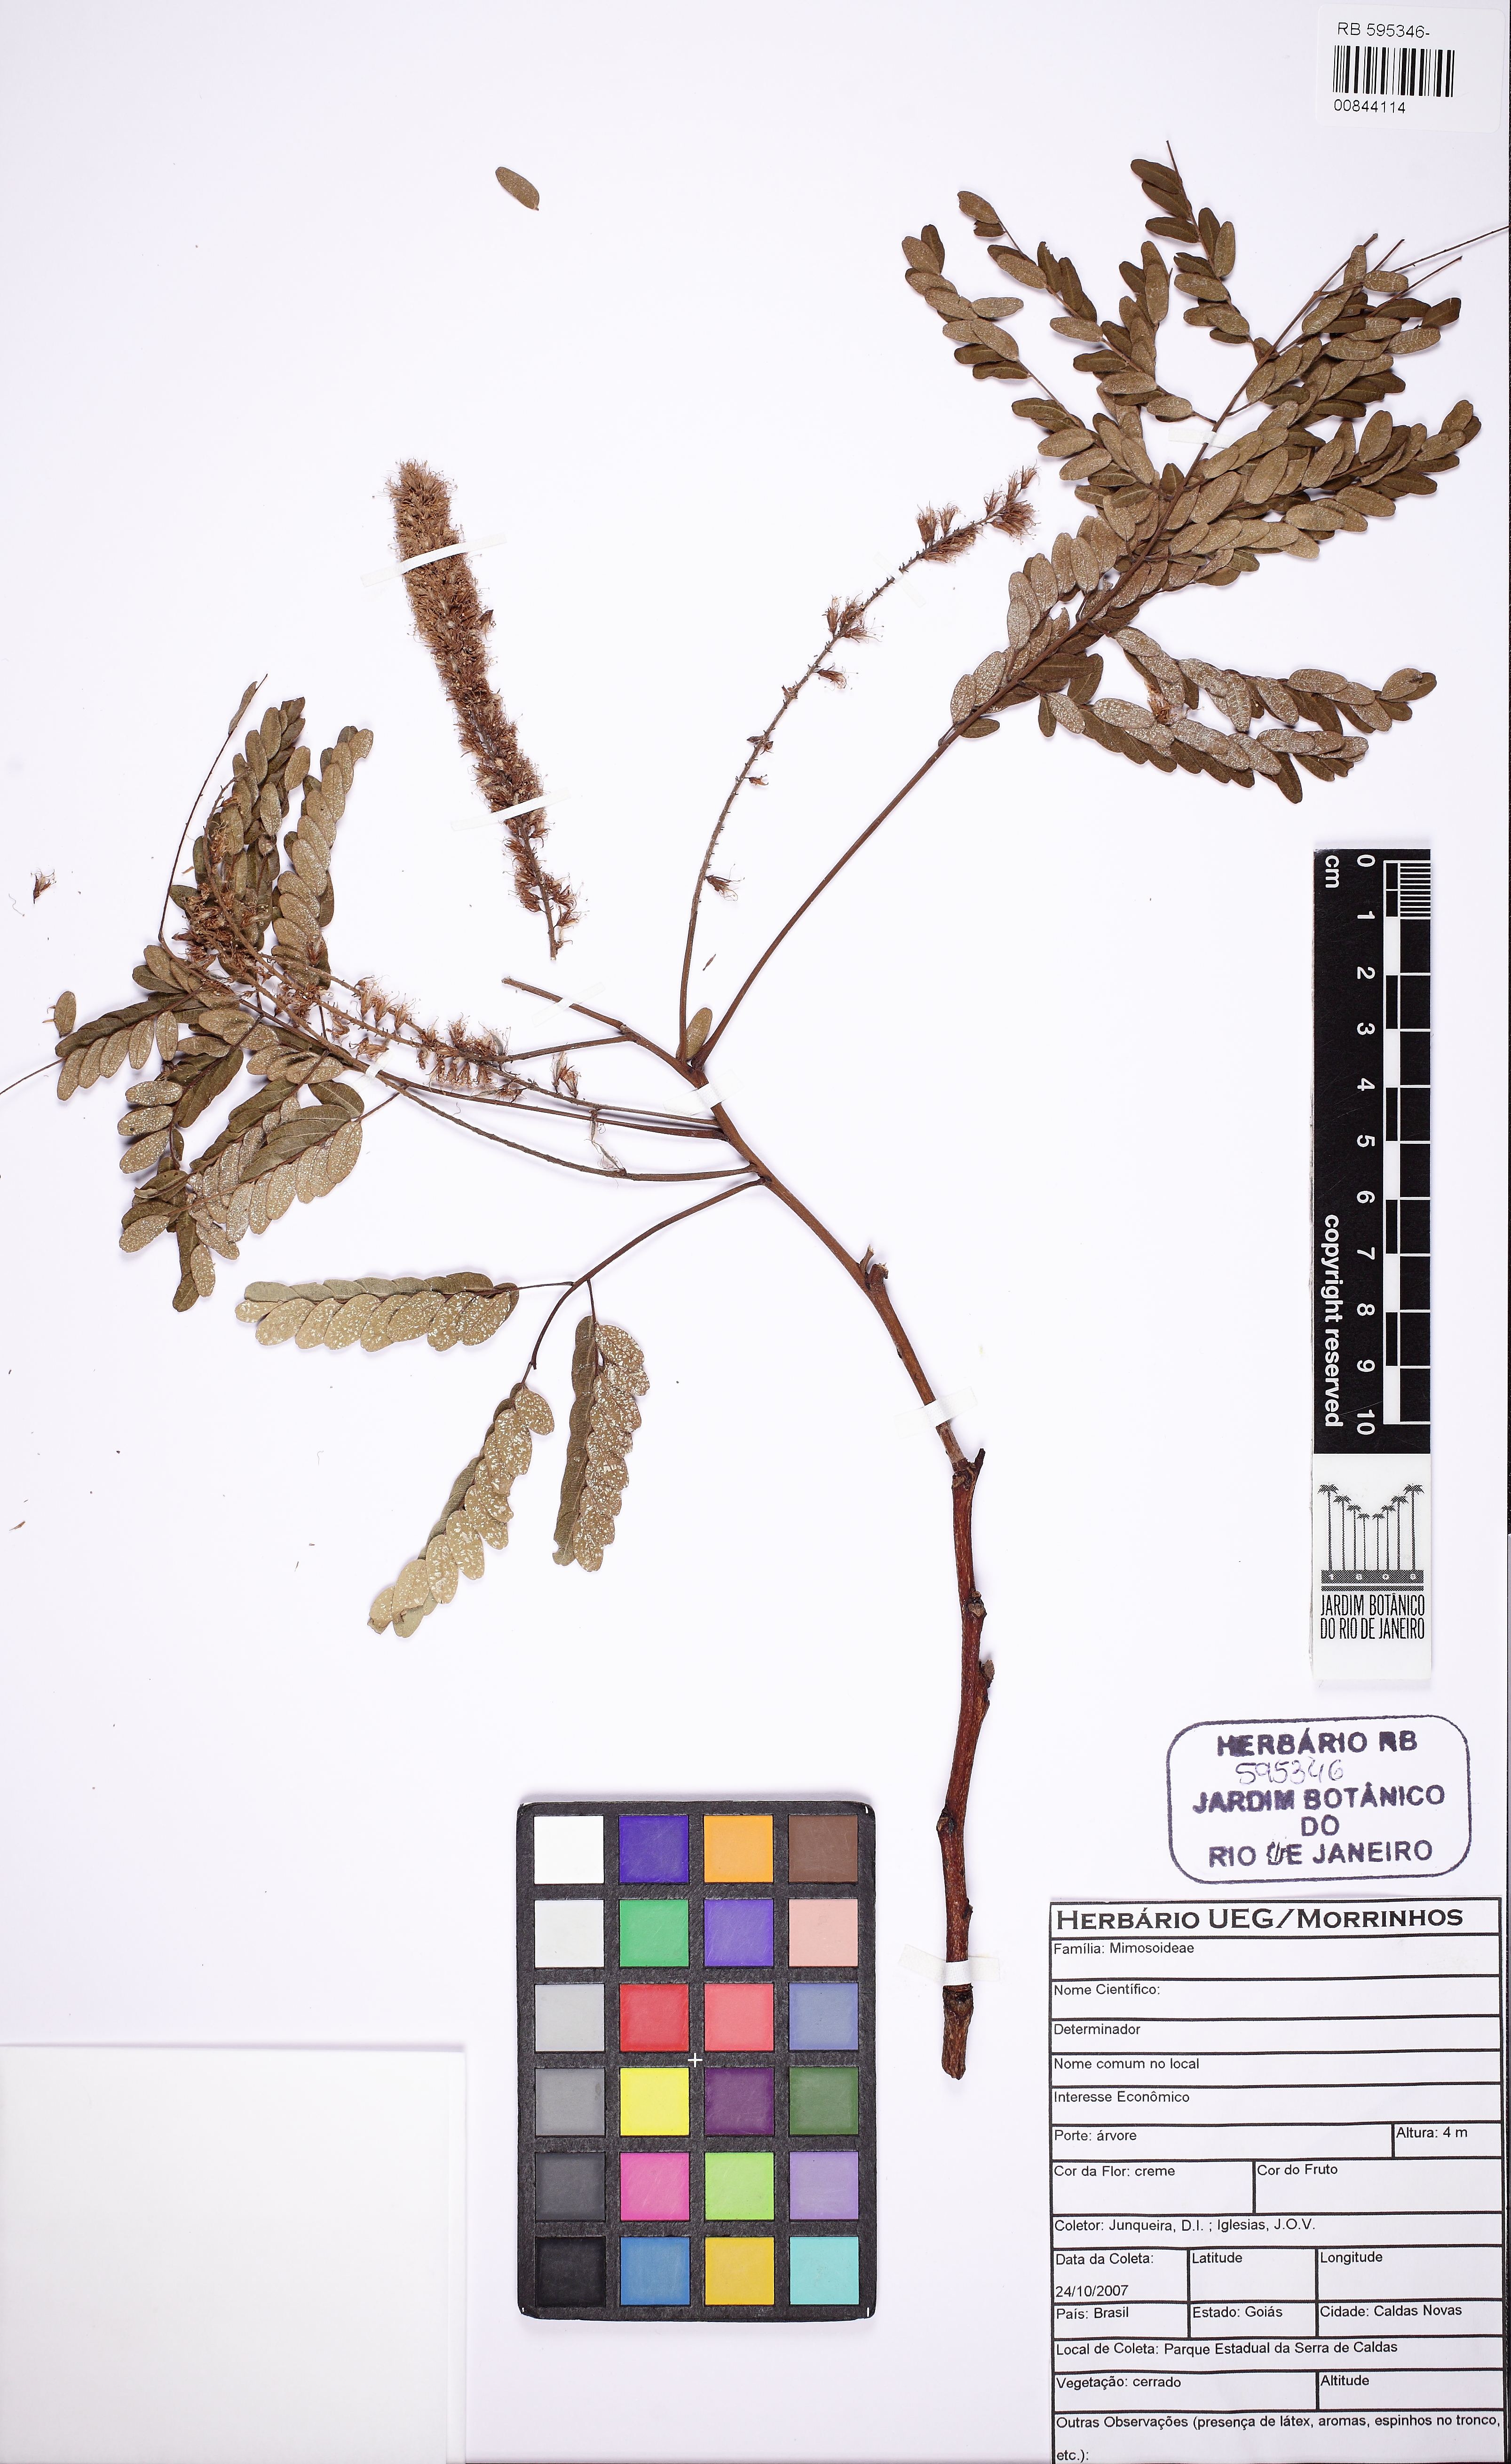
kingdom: Plantae
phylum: Tracheophyta
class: Magnoliopsida
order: Fabales
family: Fabaceae
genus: Plathymenia
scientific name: Plathymenia
